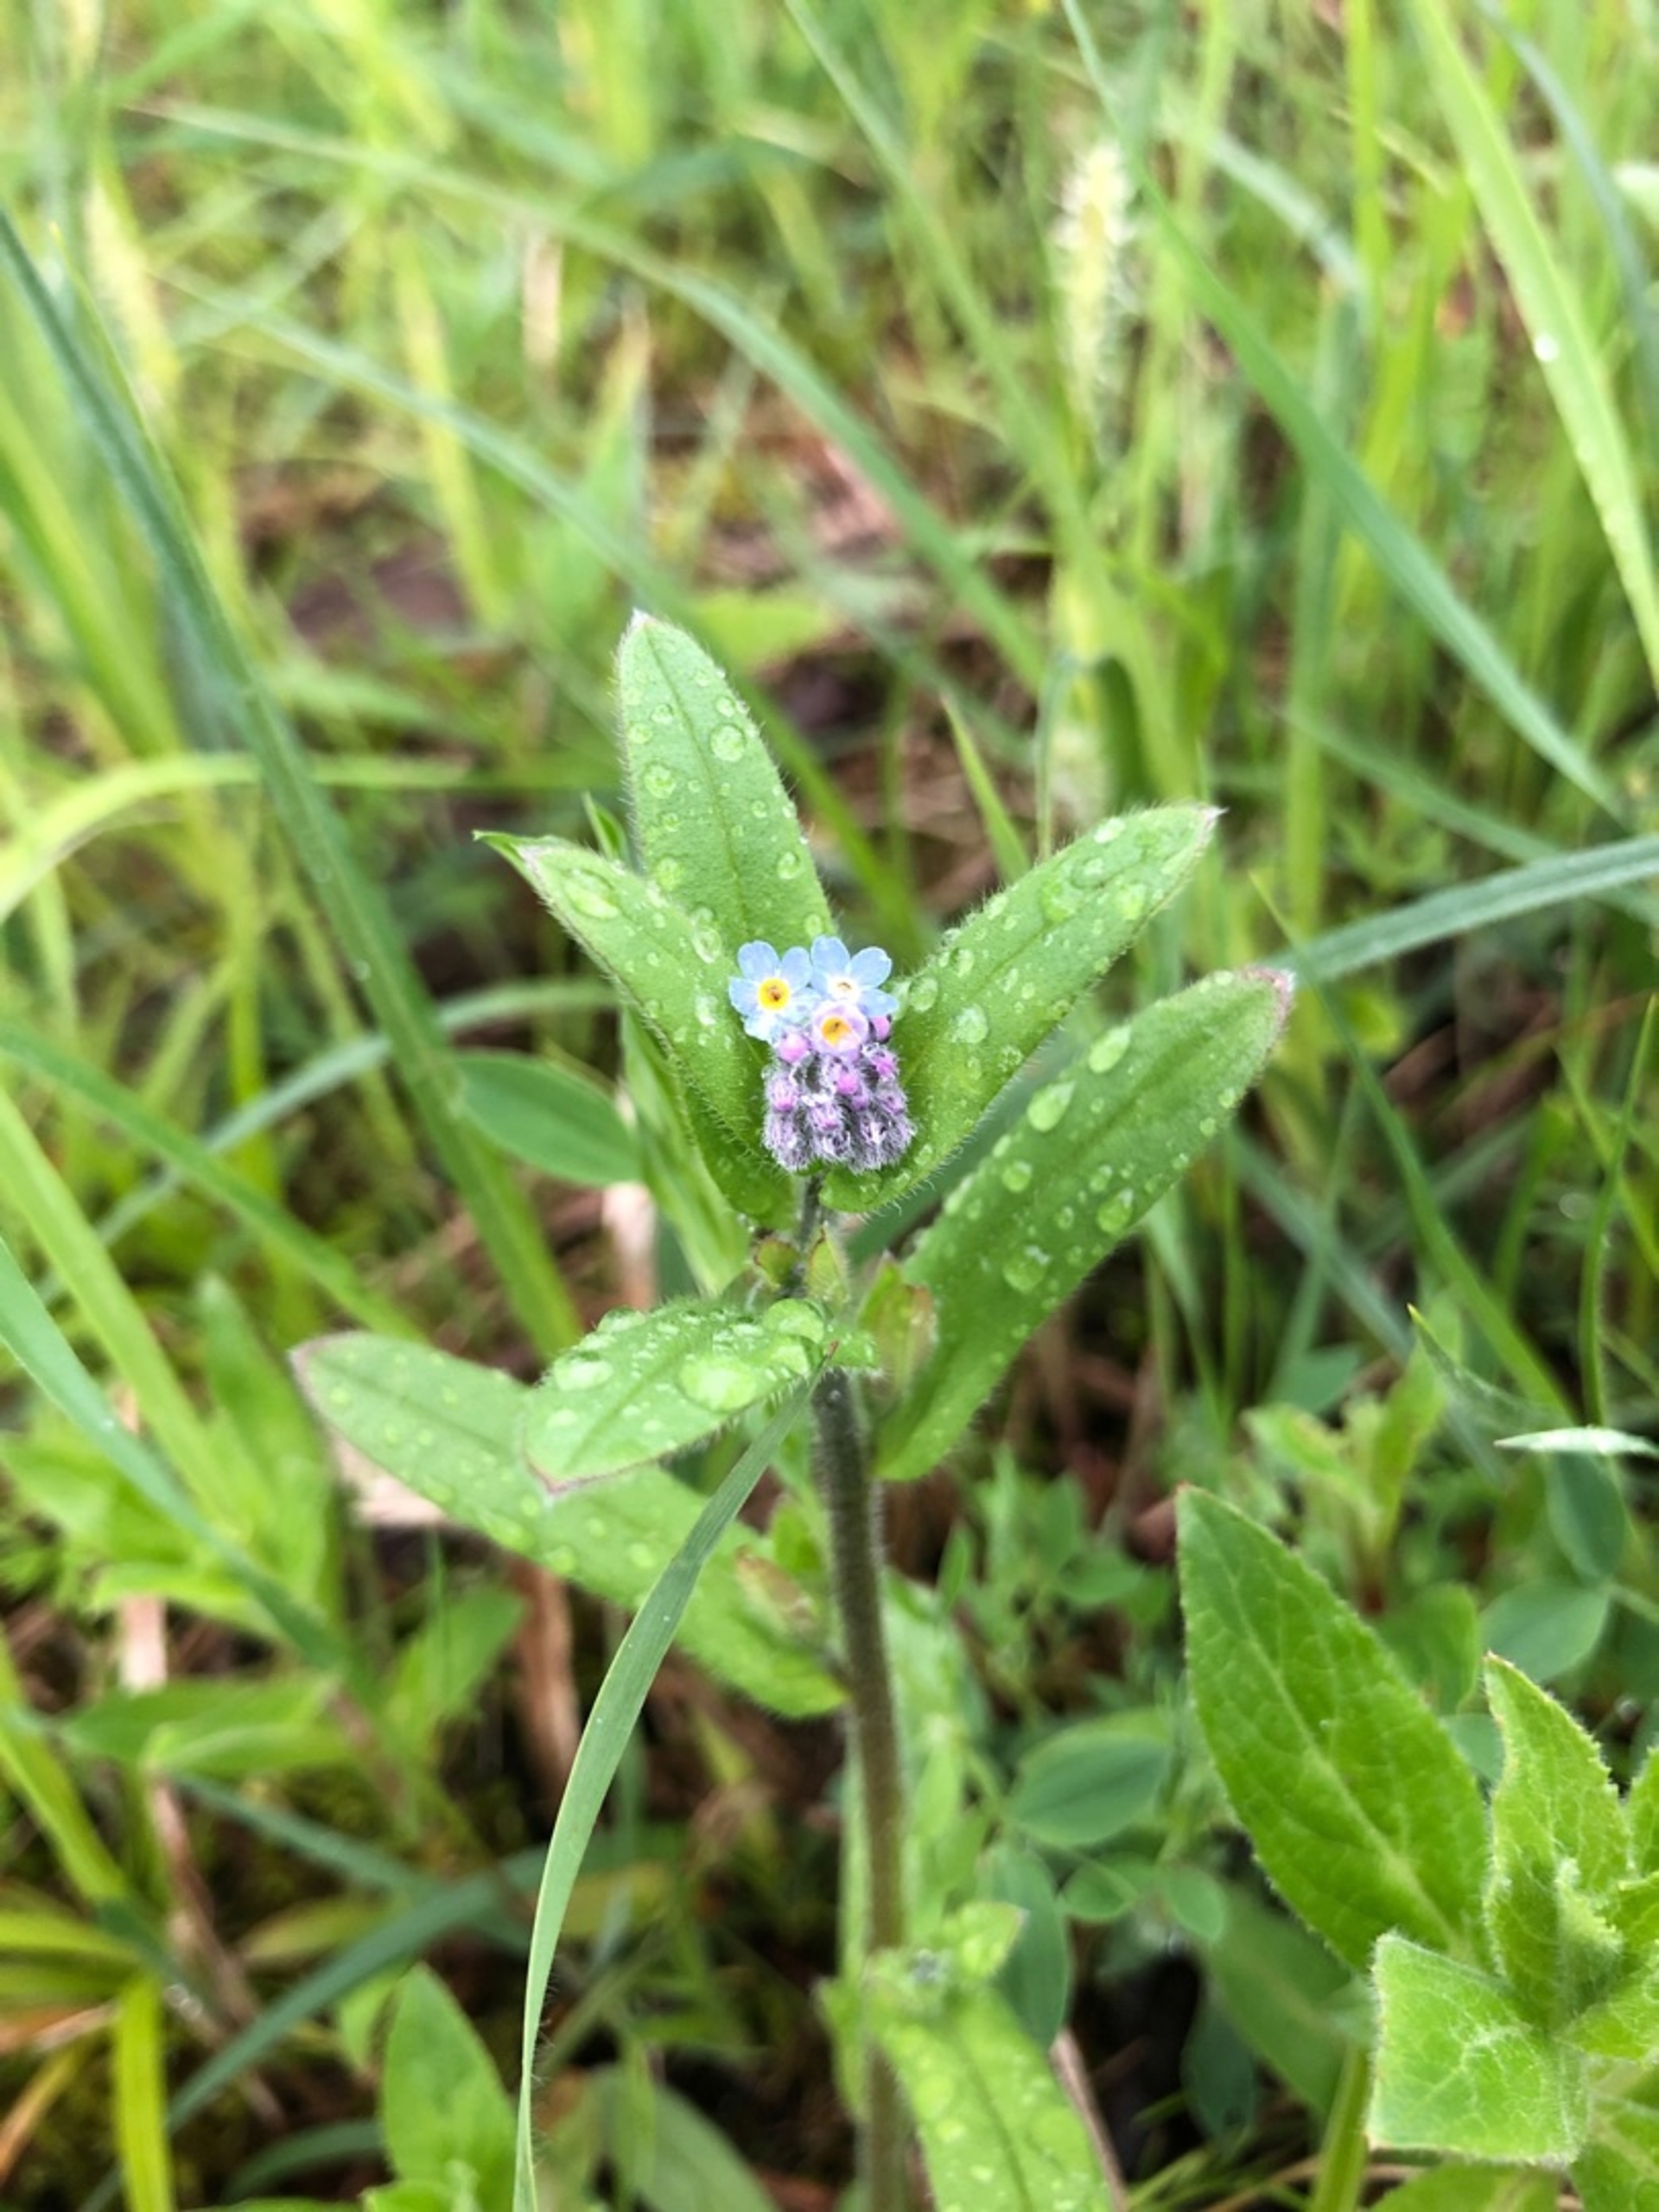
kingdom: Plantae
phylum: Tracheophyta
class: Magnoliopsida
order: Boraginales
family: Boraginaceae
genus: Myosotis
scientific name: Myosotis sylvatica
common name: Skov-forglemmigej
